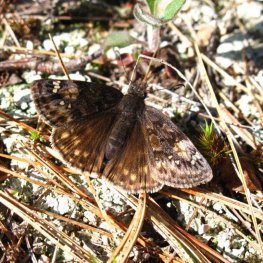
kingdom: Animalia
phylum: Arthropoda
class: Insecta
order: Lepidoptera
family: Hesperiidae
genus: Gesta
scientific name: Gesta
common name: Juvenal's Duskywing
